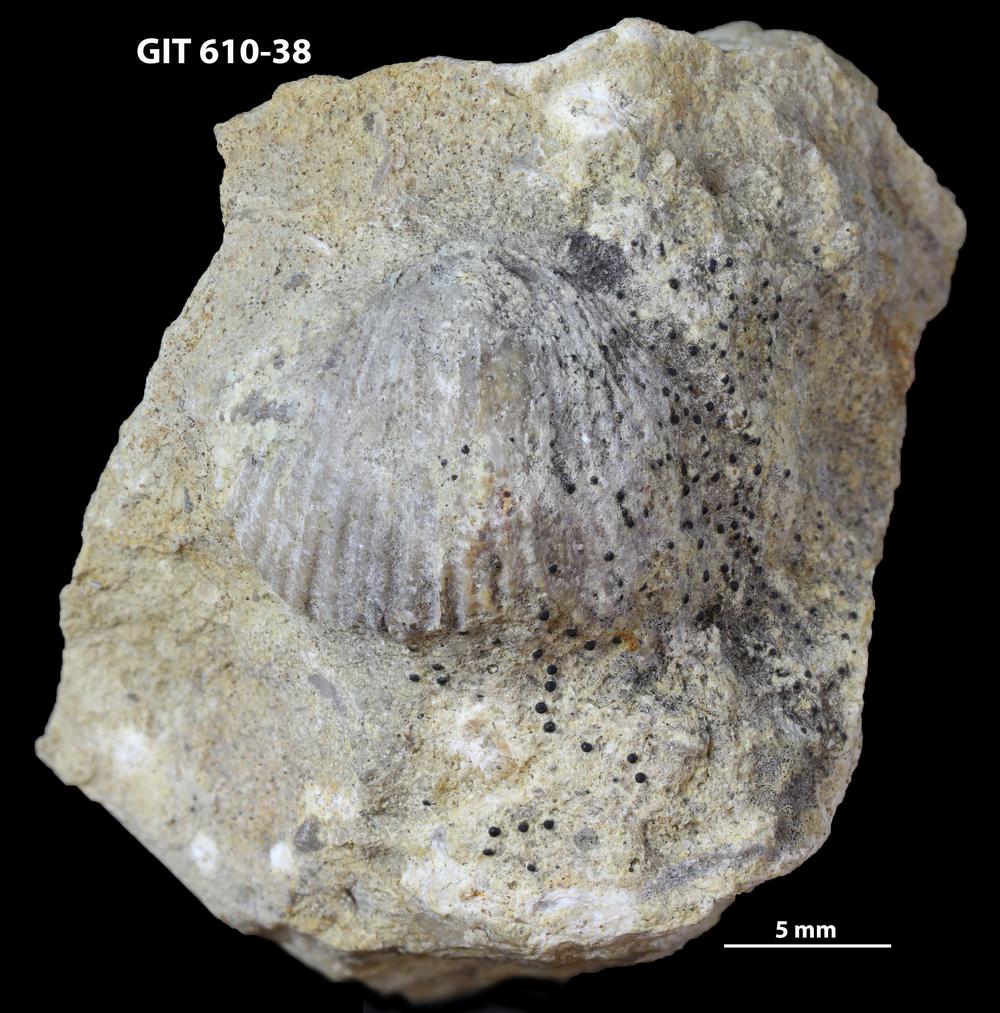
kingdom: Animalia
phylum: Brachiopoda
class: Rhynchonellata
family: Triplesiidae
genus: Cliftonia
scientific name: Cliftonia
